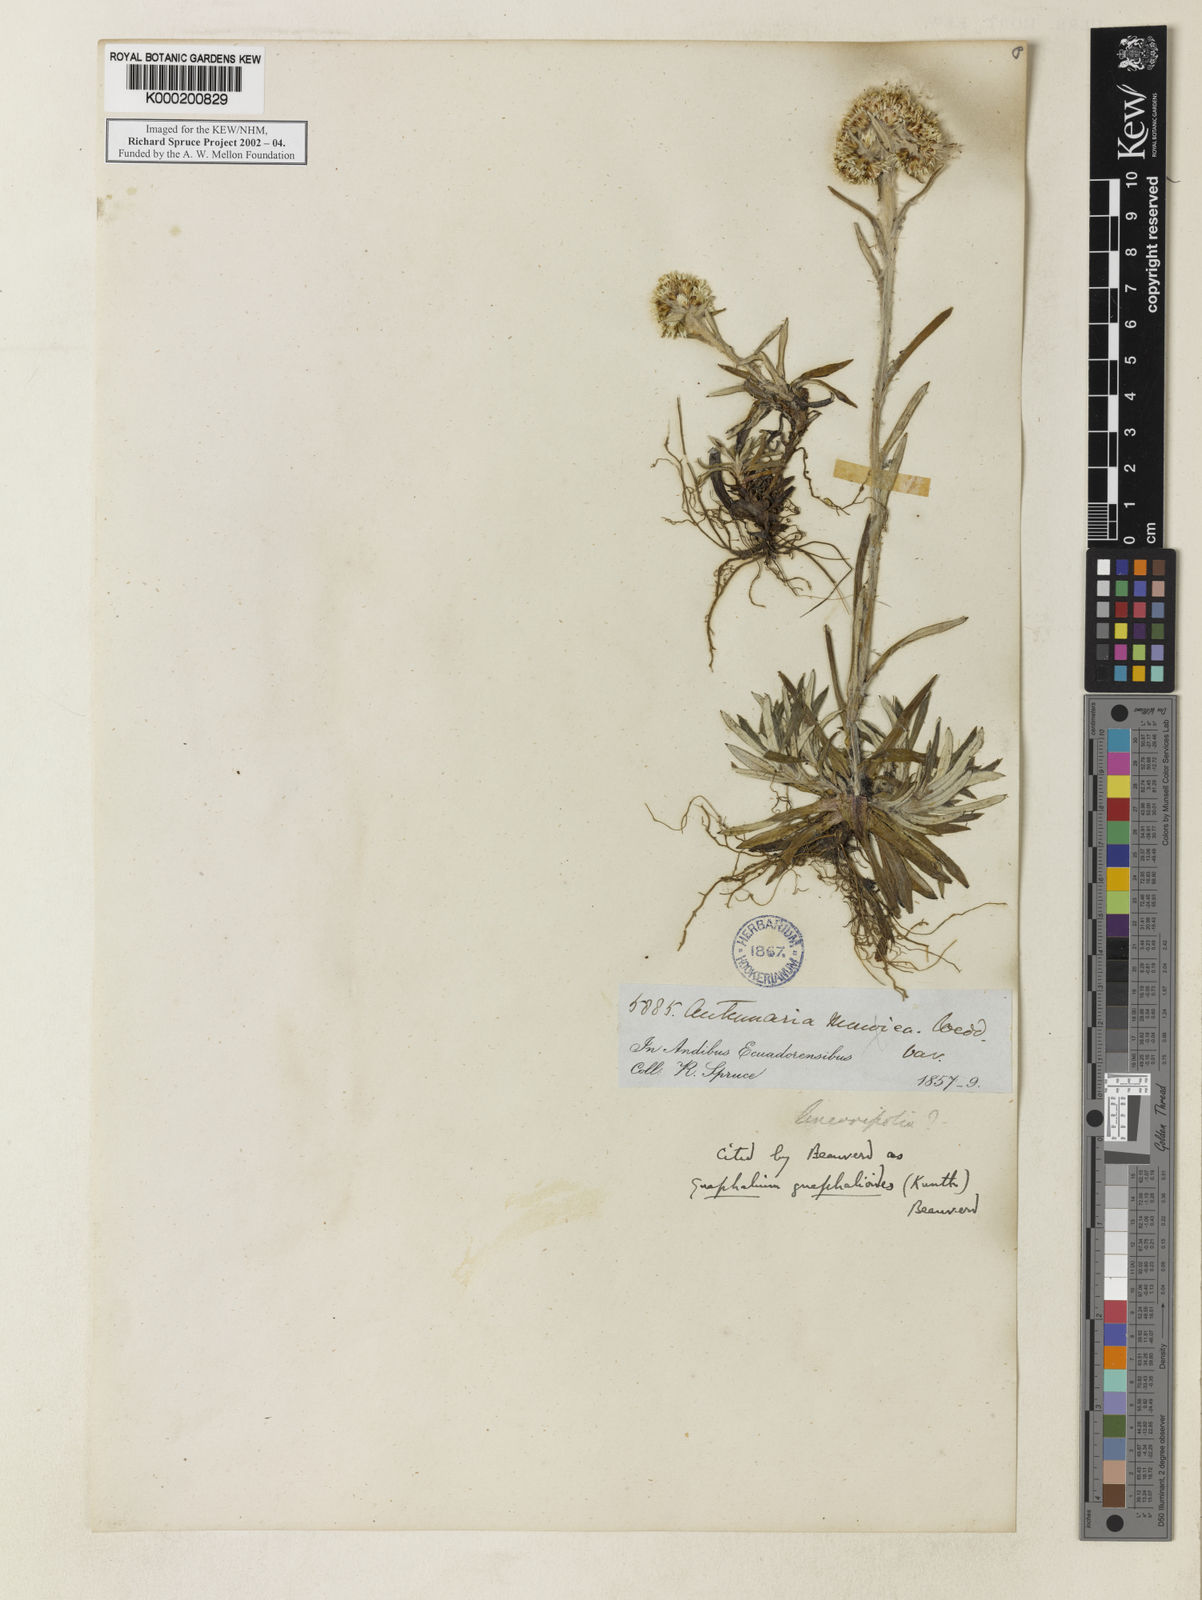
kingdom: Plantae
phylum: Tracheophyta
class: Magnoliopsida
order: Asterales
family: Asteraceae
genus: Gnaphalium
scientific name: Gnaphalium
